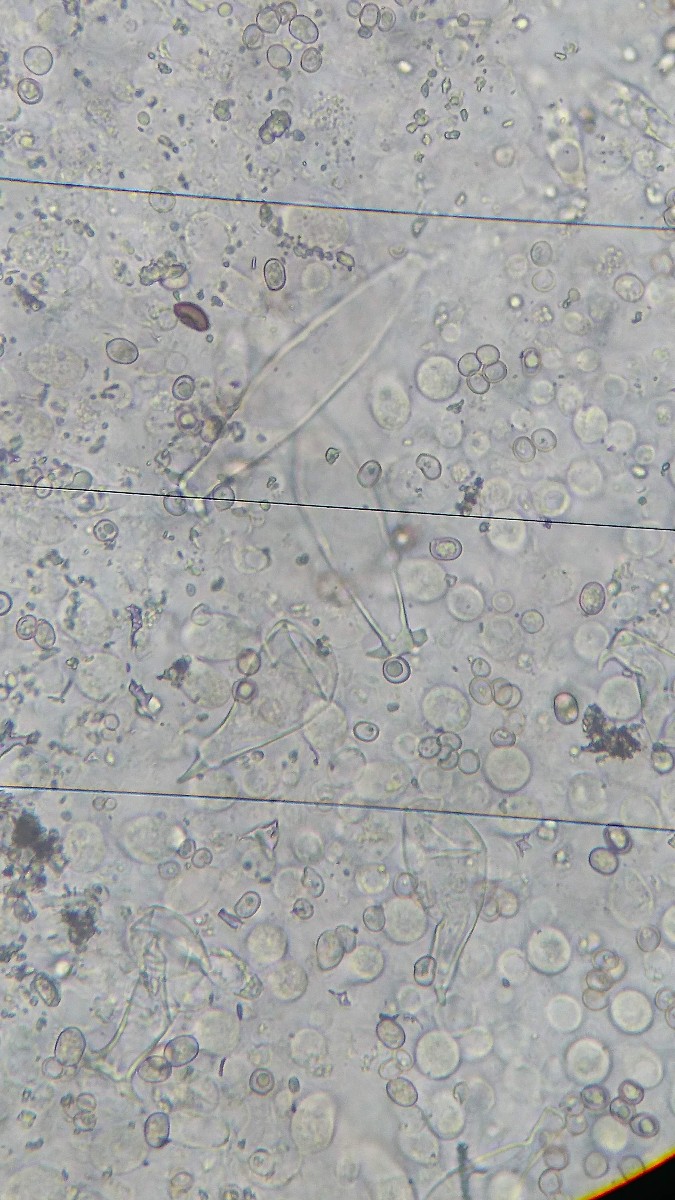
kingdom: Fungi
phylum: Basidiomycota
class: Agaricomycetes
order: Agaricales
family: Pluteaceae
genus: Pluteus
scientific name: Pluteus salicinus
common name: stiv skærmhat
